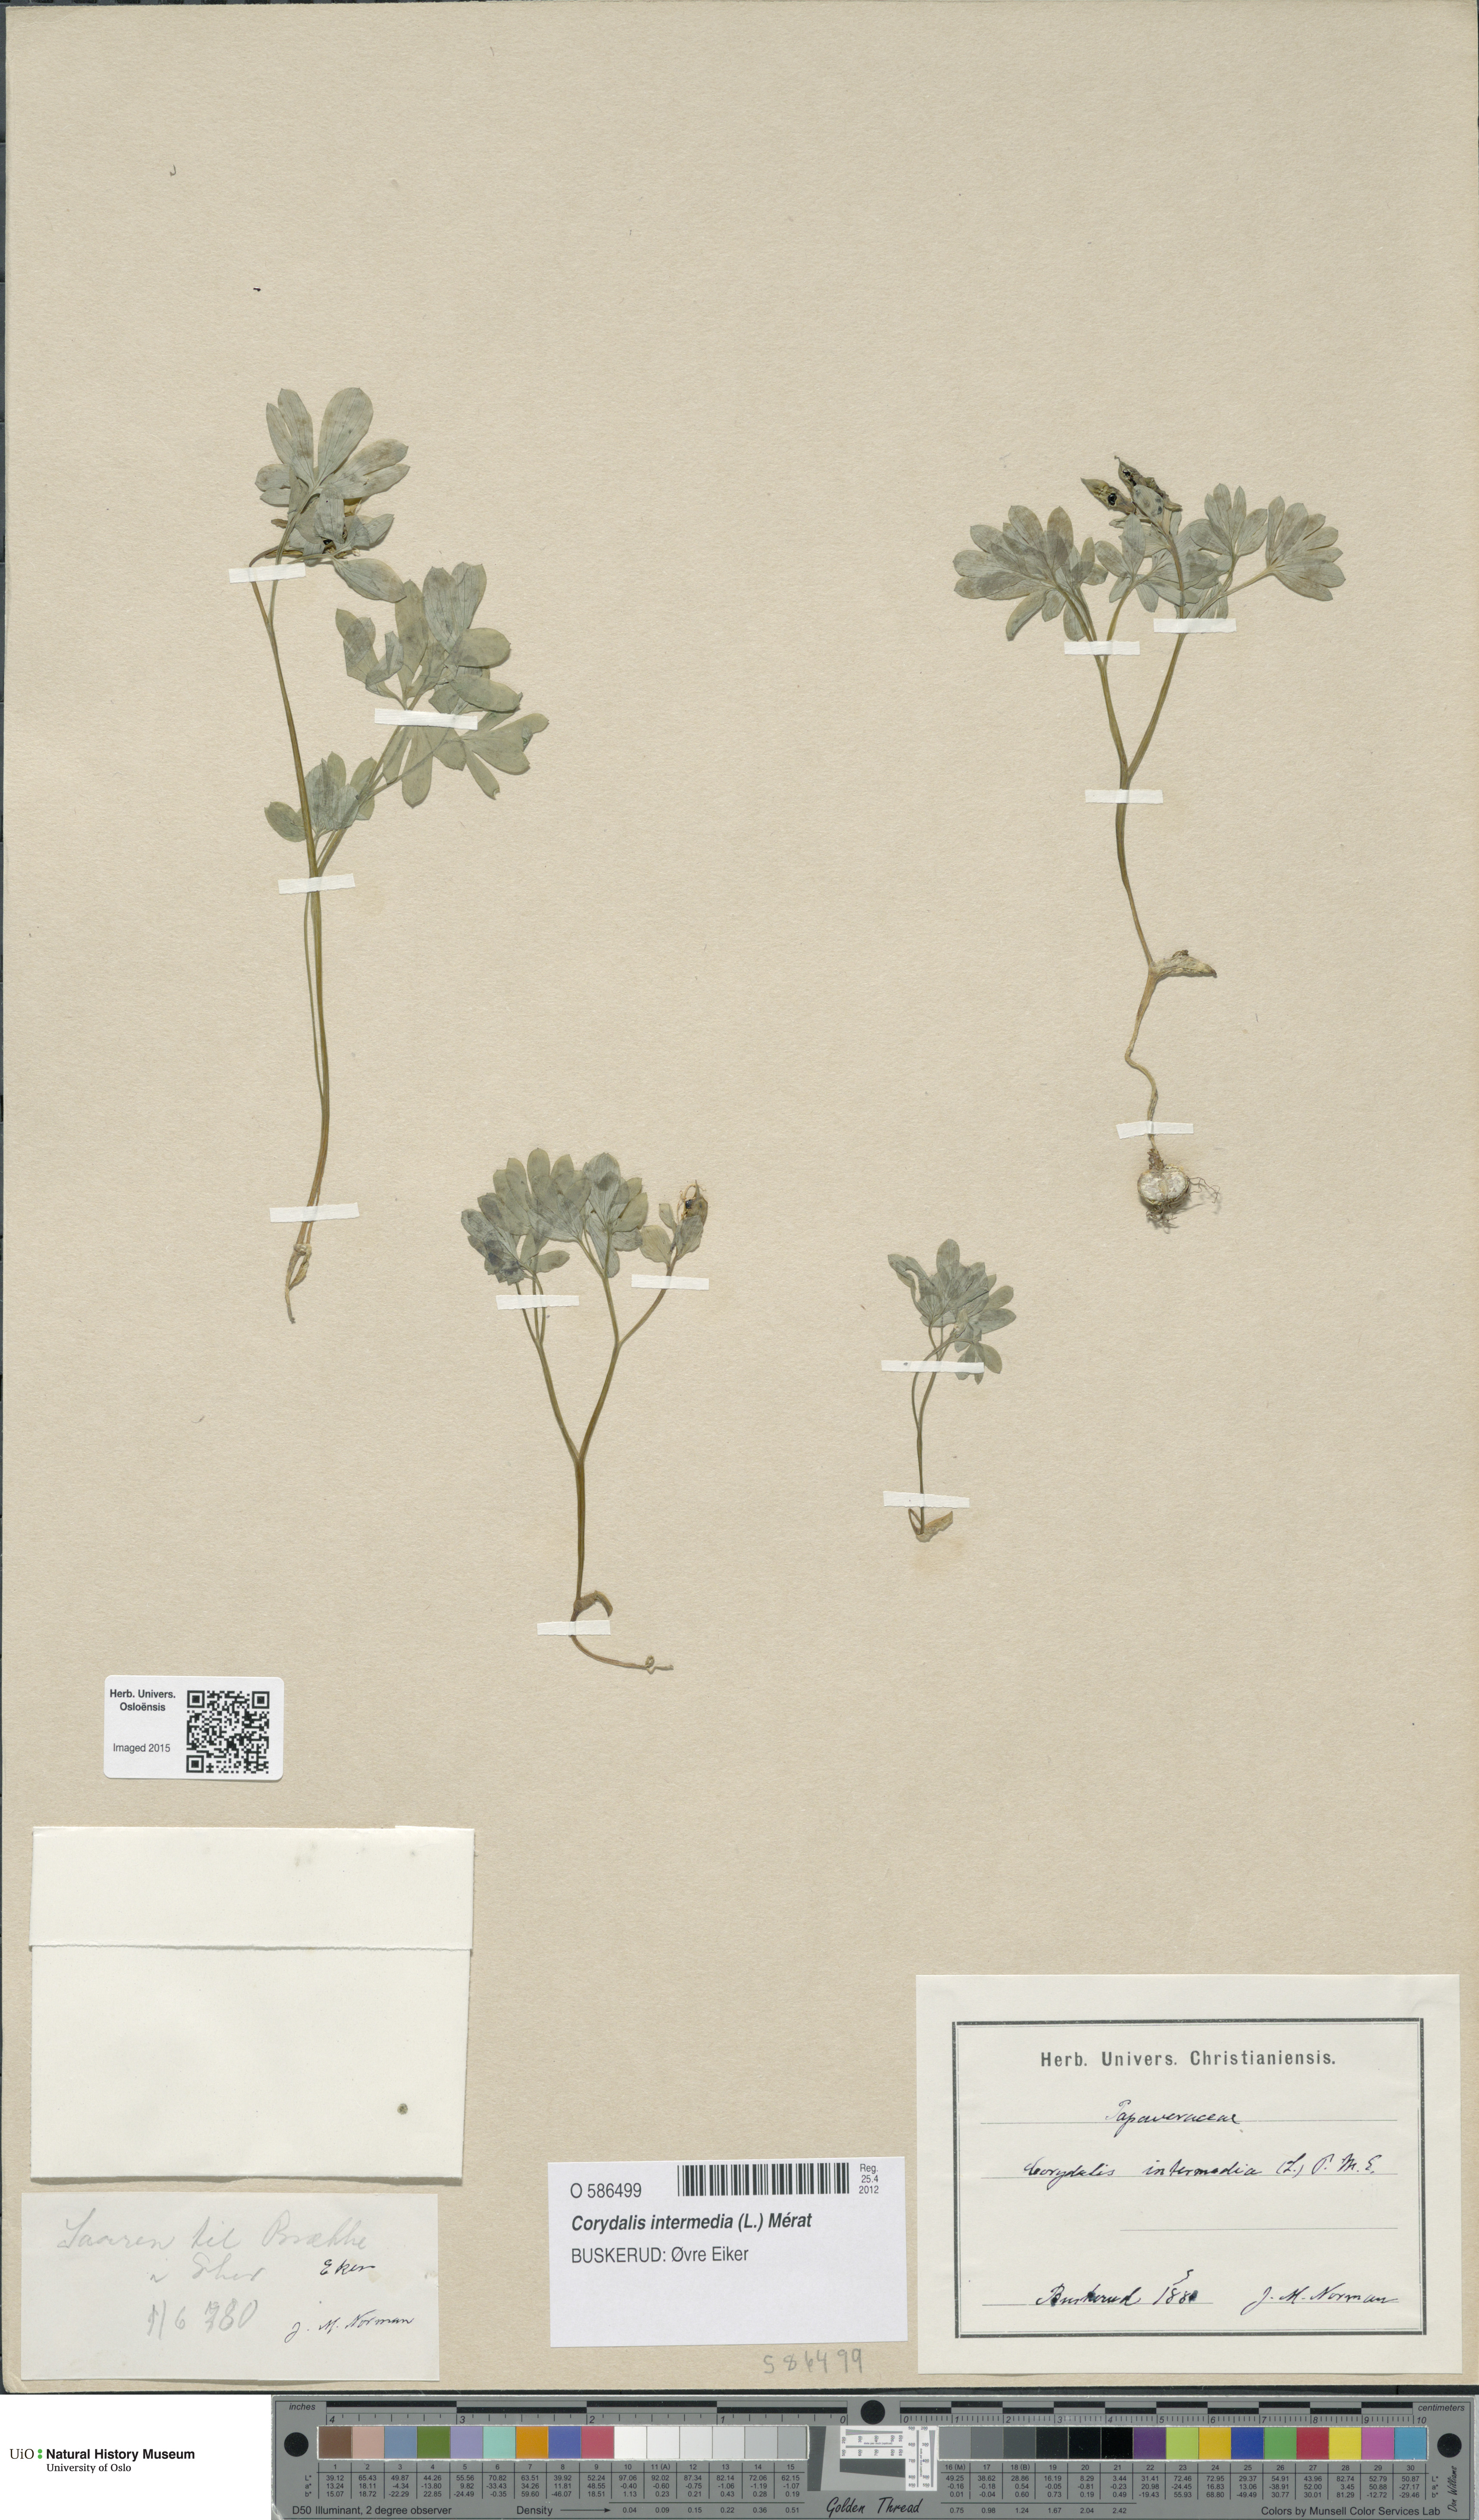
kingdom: Plantae
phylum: Tracheophyta
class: Magnoliopsida
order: Ranunculales
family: Papaveraceae
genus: Corydalis
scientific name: Corydalis intermedia
